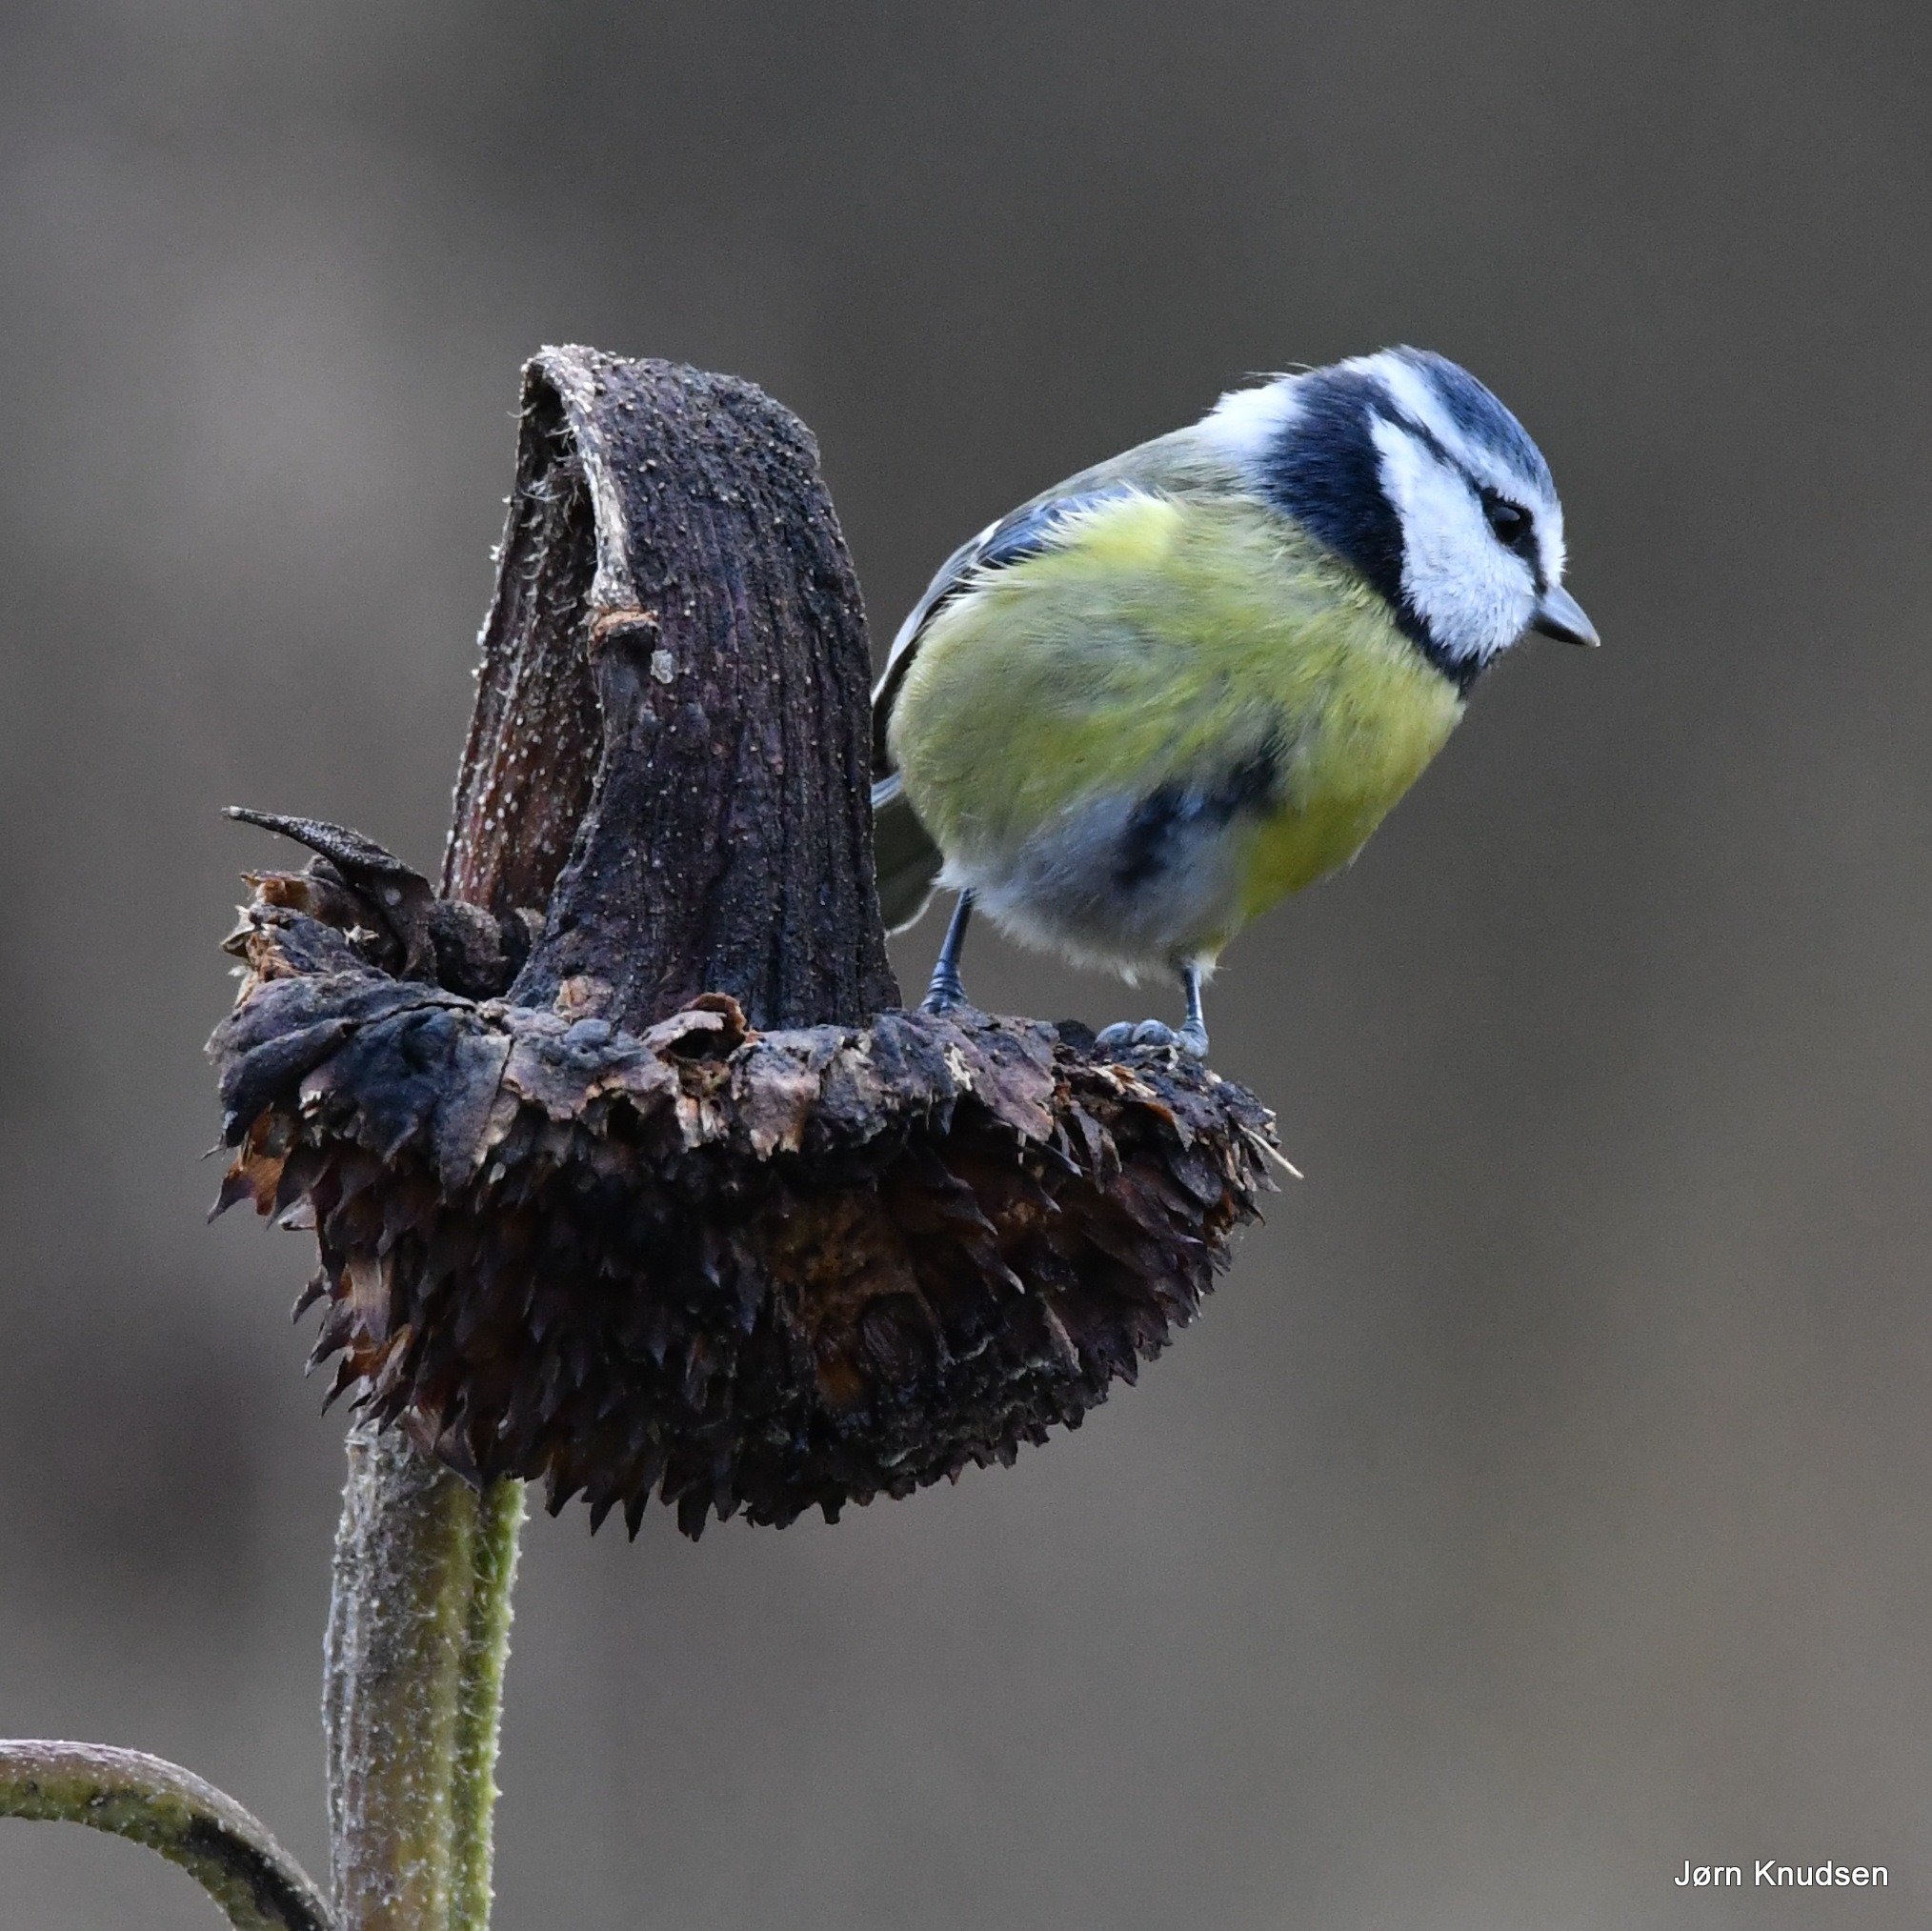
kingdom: Animalia
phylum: Chordata
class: Aves
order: Passeriformes
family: Paridae
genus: Cyanistes
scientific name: Cyanistes caeruleus
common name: Blåmejse
